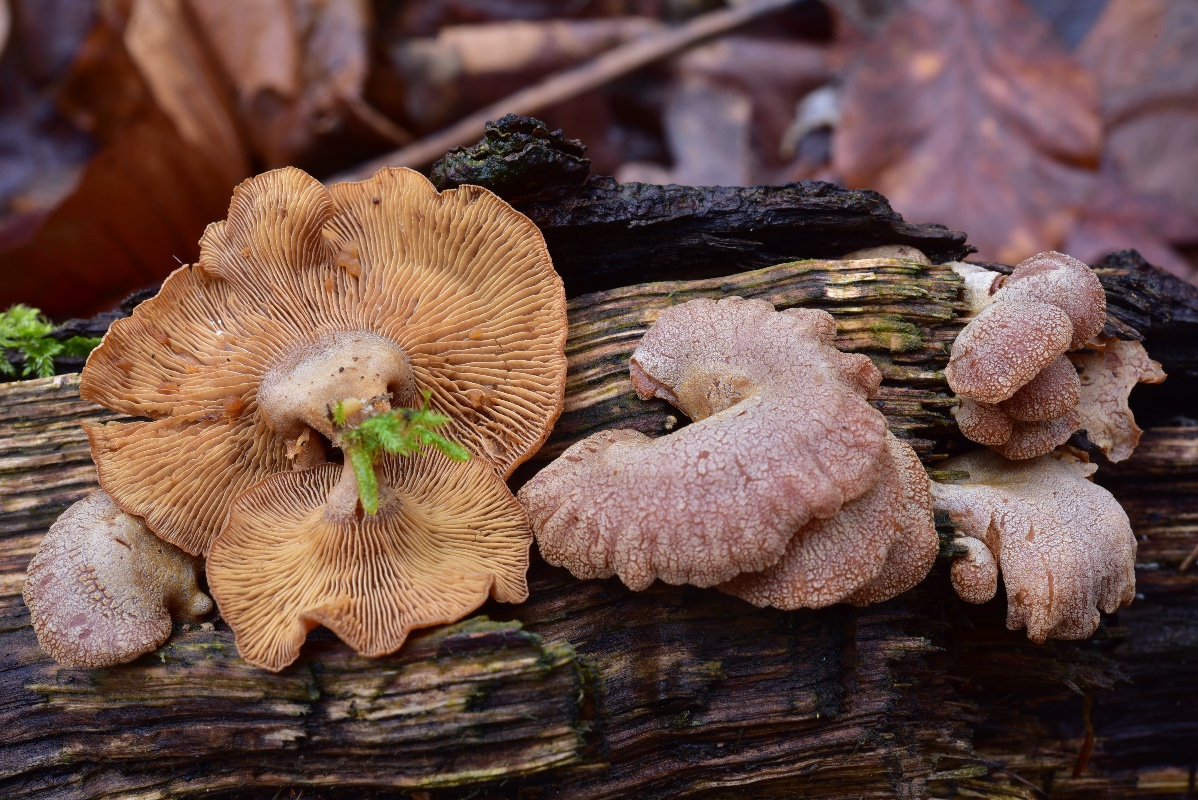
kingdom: Fungi
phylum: Basidiomycota
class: Agaricomycetes
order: Agaricales
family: Mycenaceae
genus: Panellus
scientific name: Panellus stipticus
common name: kliddet epaulethat
